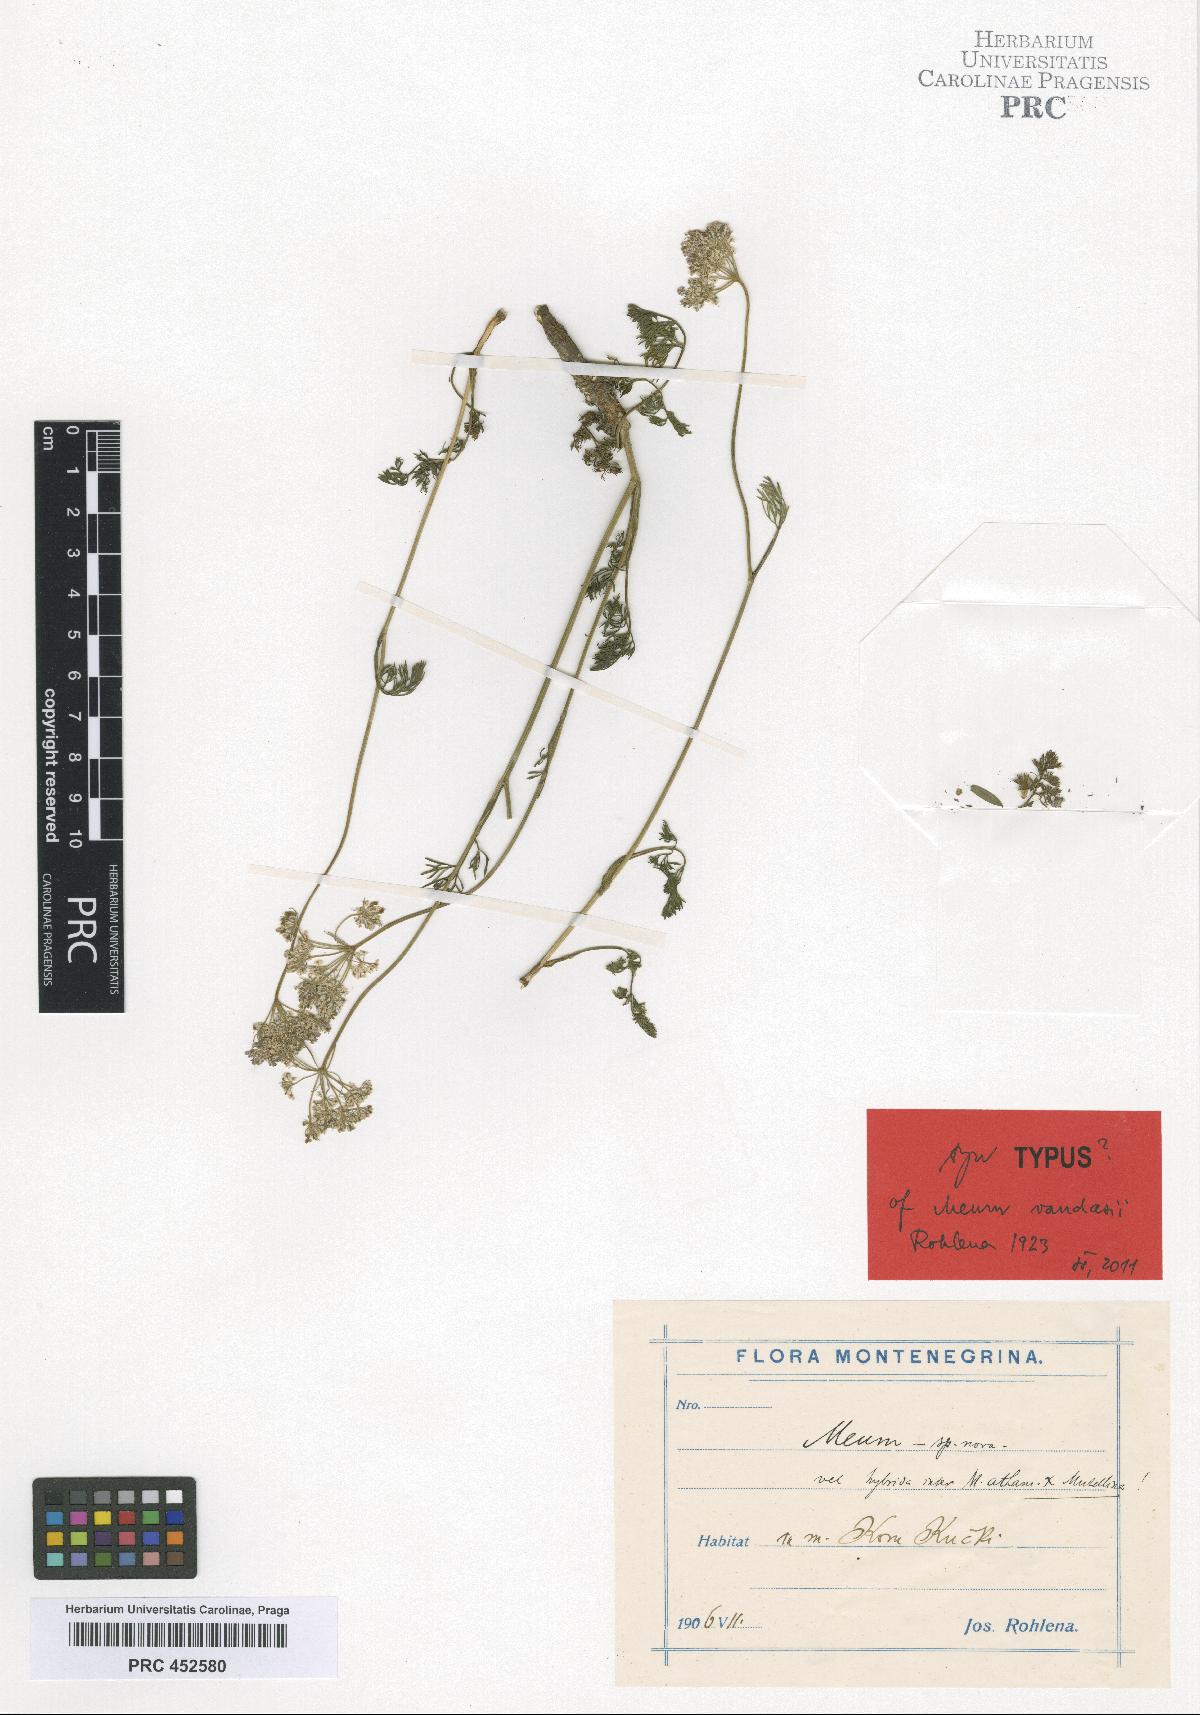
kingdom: Plantae
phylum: Tracheophyta
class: Magnoliopsida
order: Apiales
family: Apiaceae
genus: Meum
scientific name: Meum vandasii
